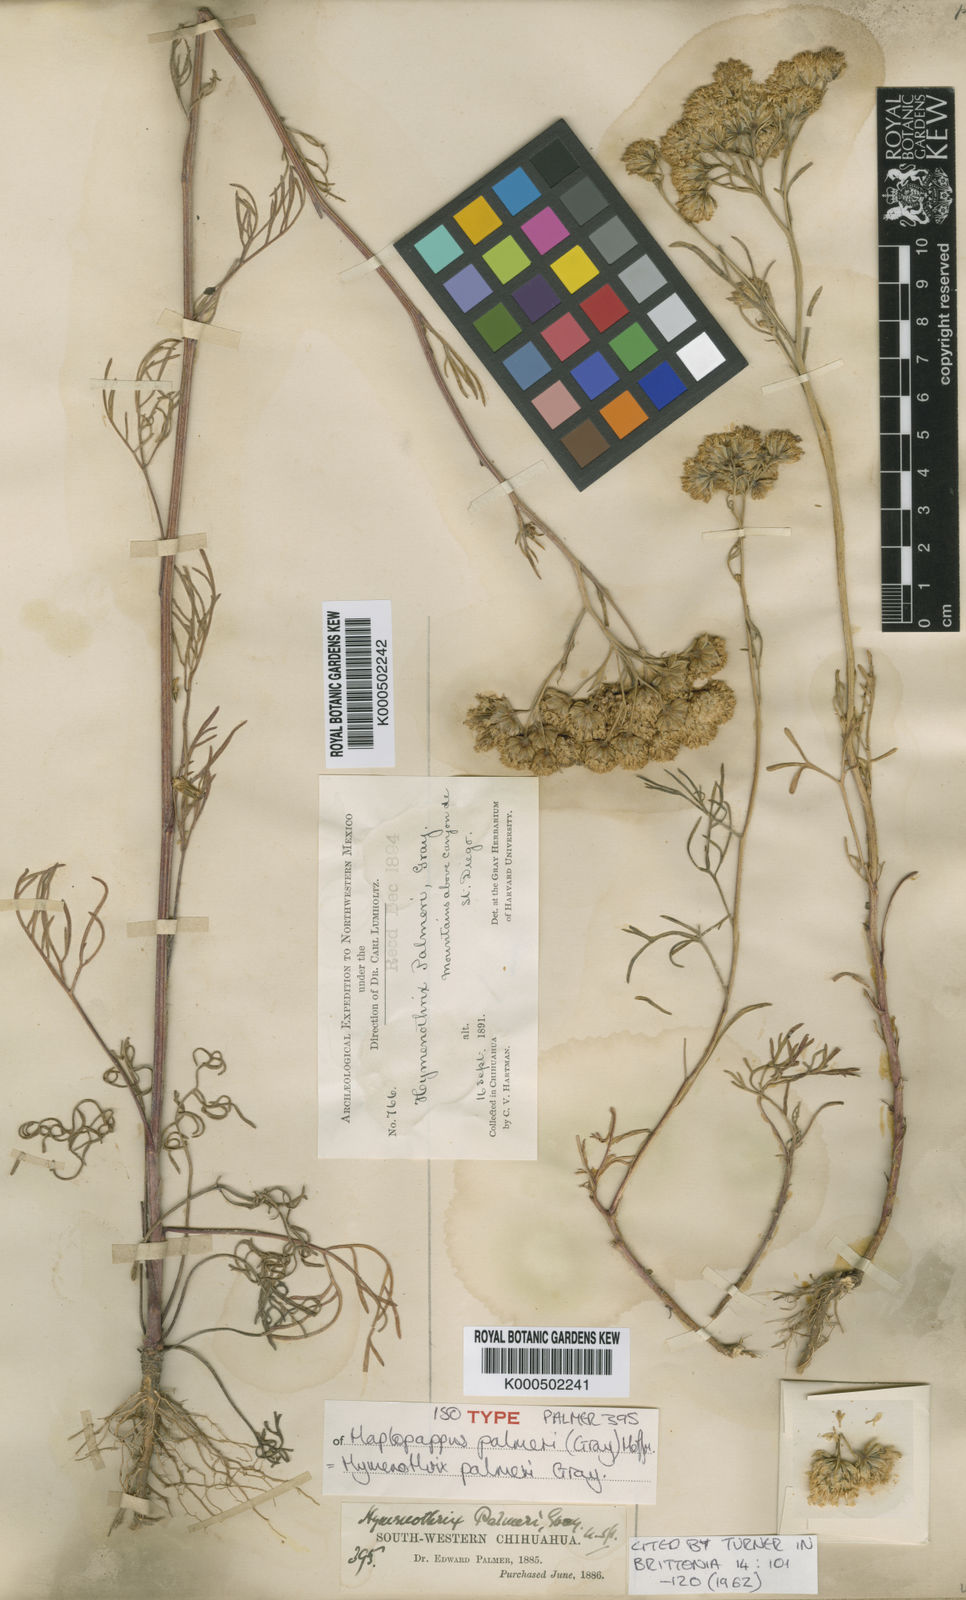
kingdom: Plantae
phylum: Tracheophyta
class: Magnoliopsida
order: Asterales
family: Asteraceae
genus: Hymenothrix
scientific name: Hymenothrix palmeri
